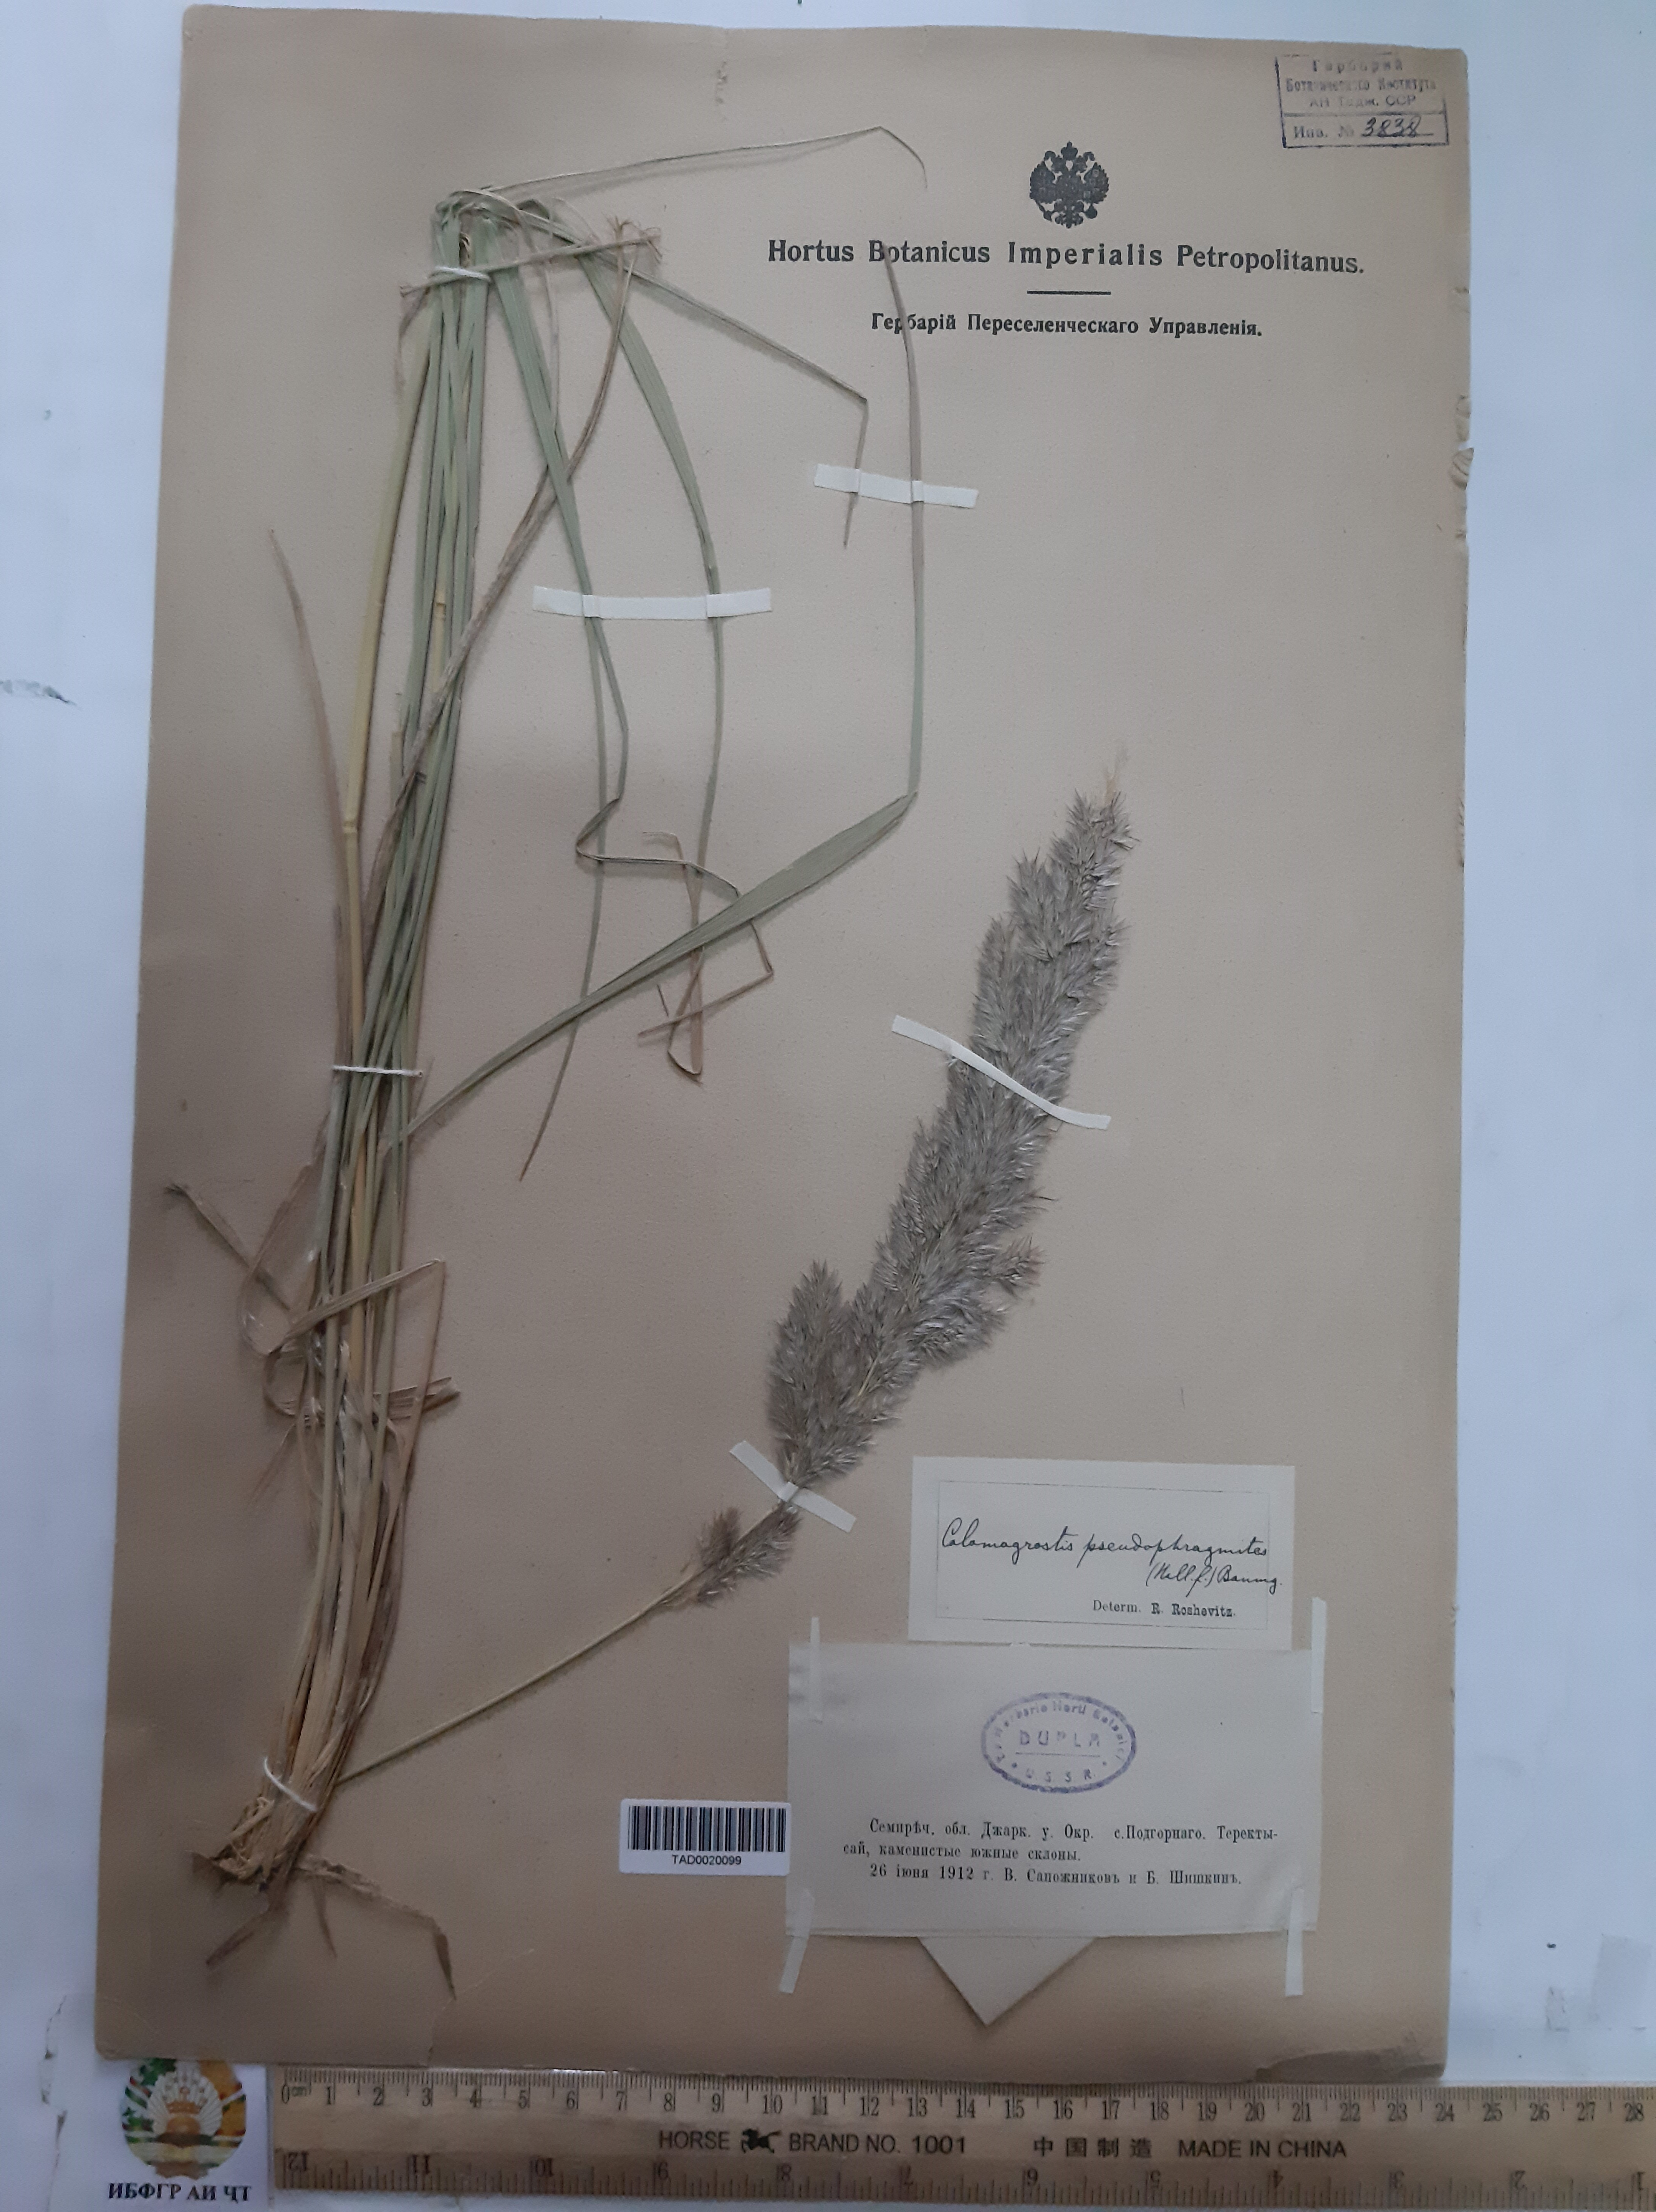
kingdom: Plantae
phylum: Tracheophyta
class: Liliopsida
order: Poales
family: Poaceae
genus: Calamagrostis
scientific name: Calamagrostis pseudophragmites
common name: Coastal small-reed
